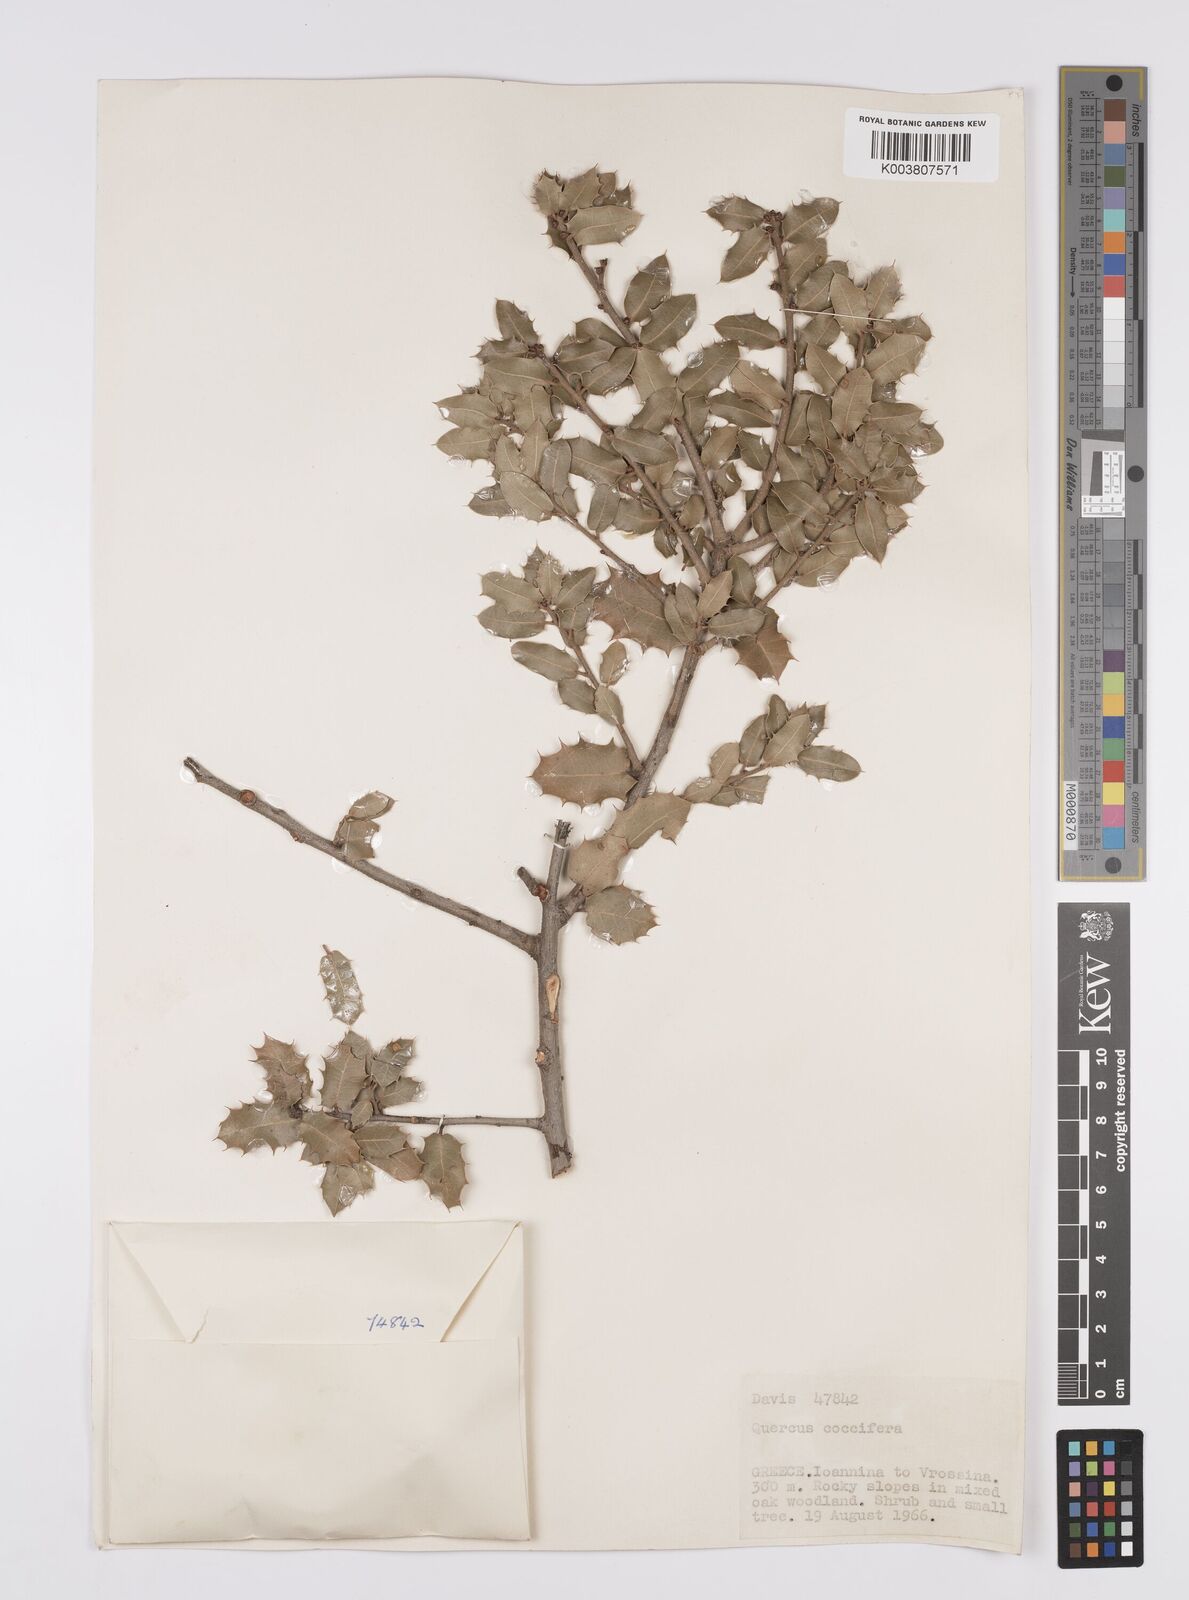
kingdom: Plantae
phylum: Tracheophyta
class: Magnoliopsida
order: Fagales
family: Fagaceae
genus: Quercus
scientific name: Quercus coccifera
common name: Kermes oak
